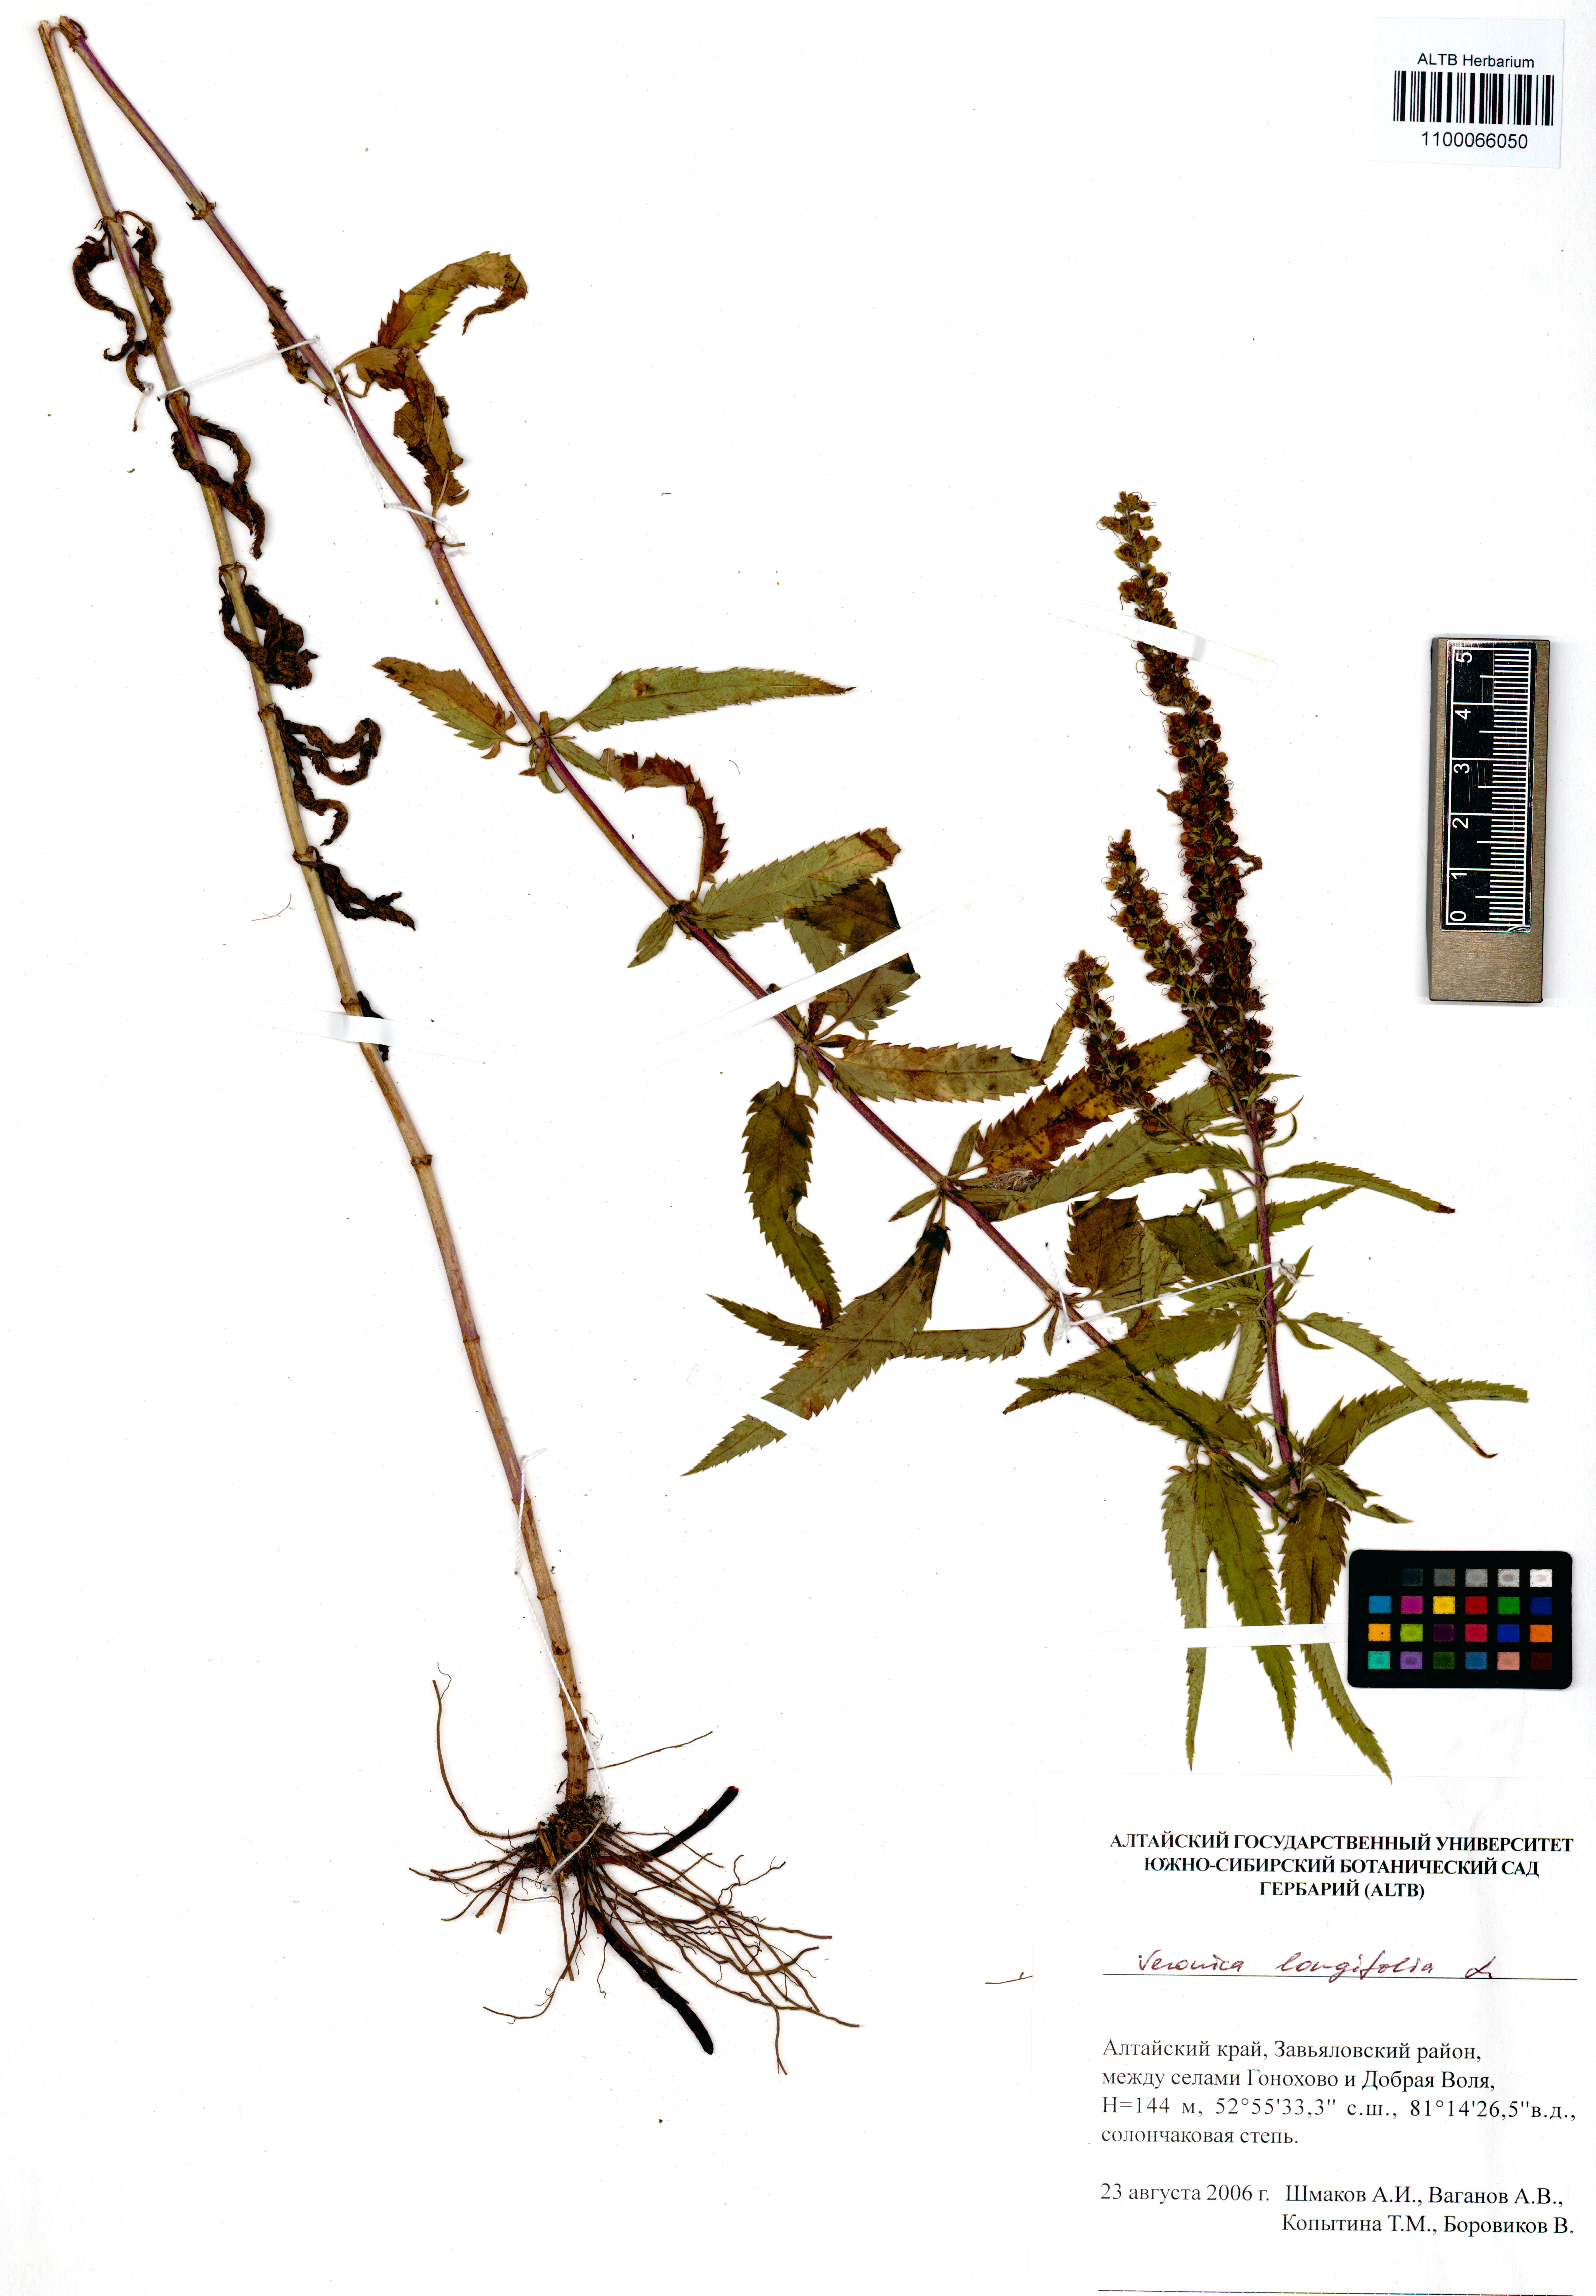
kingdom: Plantae
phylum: Tracheophyta
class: Magnoliopsida
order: Lamiales
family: Plantaginaceae
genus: Veronica
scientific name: Veronica longifolia
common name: Garden speedwell
